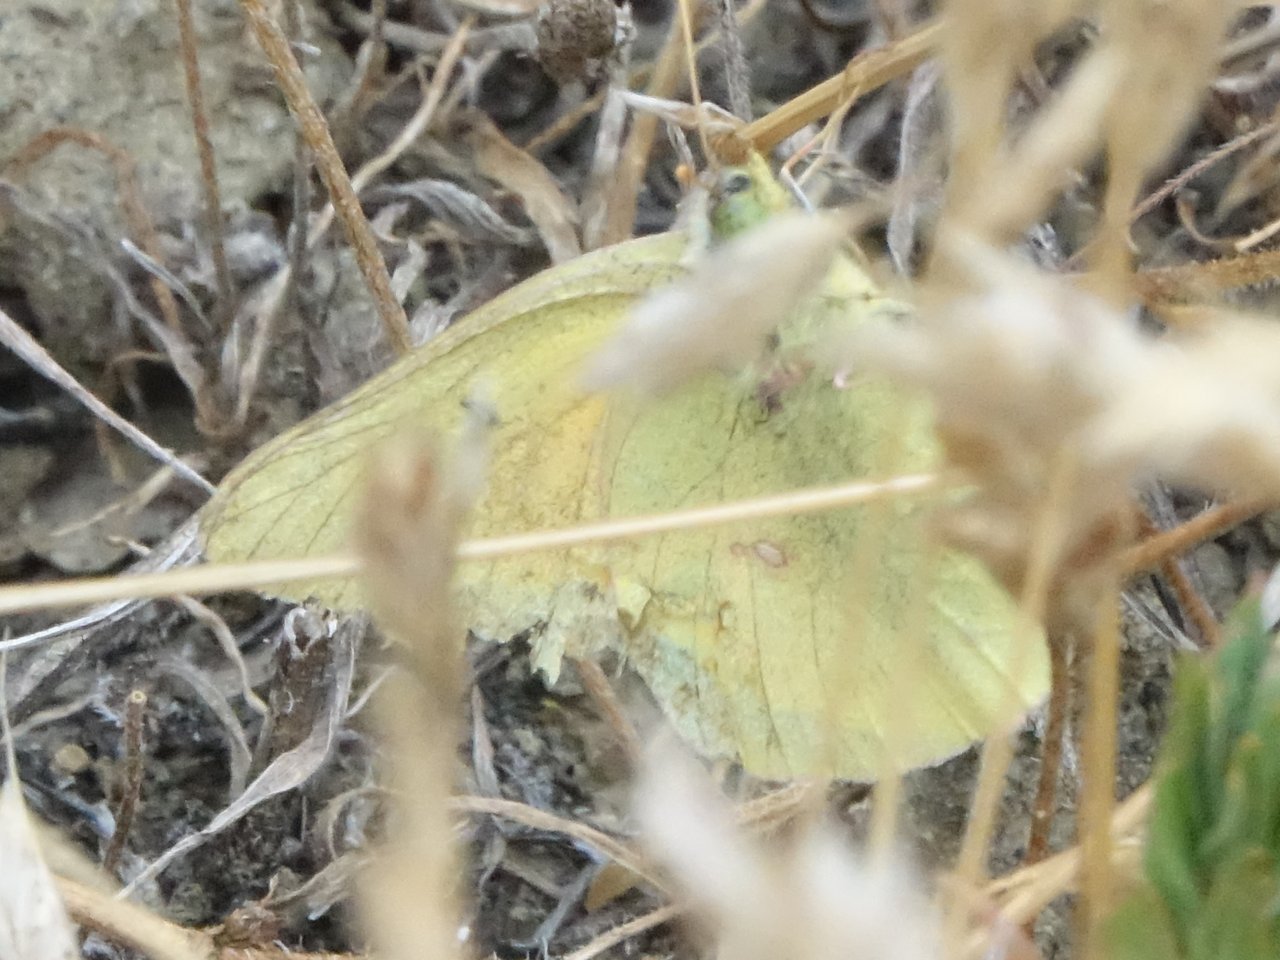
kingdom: Animalia
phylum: Arthropoda
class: Insecta
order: Lepidoptera
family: Pieridae
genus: Colias
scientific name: Colias eurytheme
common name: Orange Sulphur
